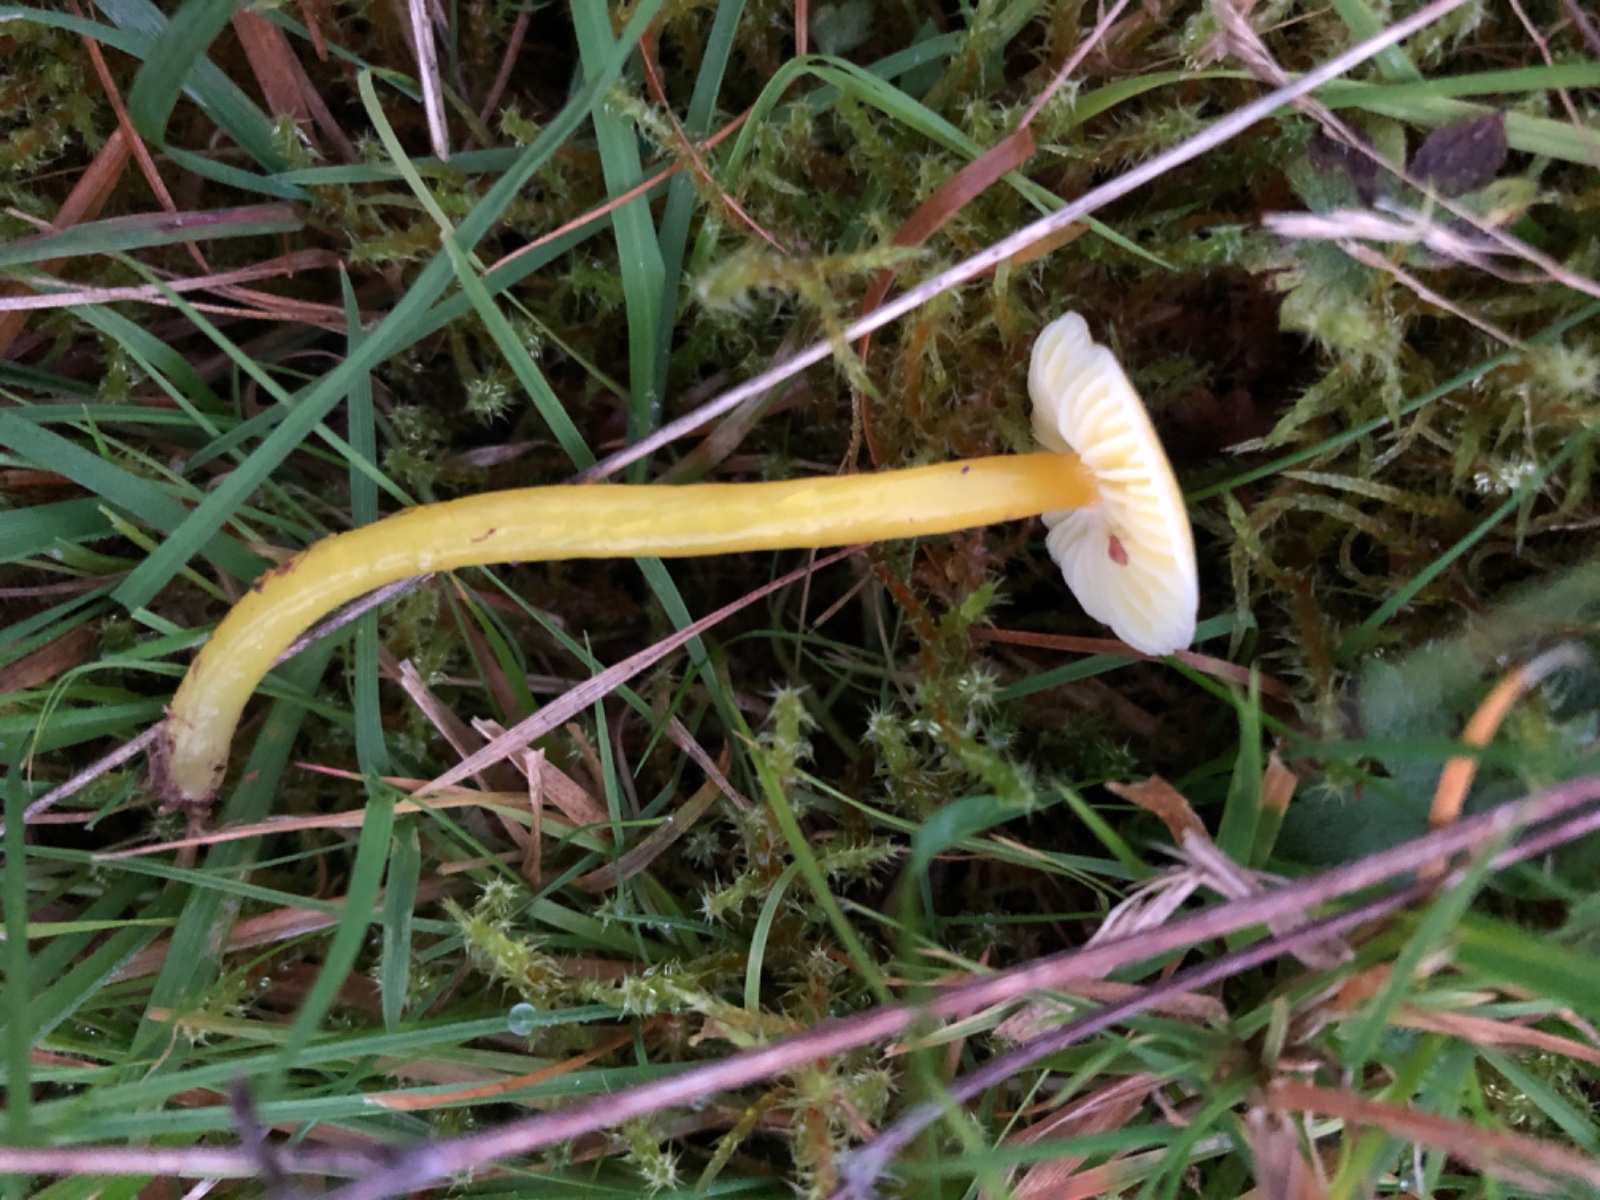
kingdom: Fungi
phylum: Basidiomycota
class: Agaricomycetes
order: Agaricales
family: Hygrophoraceae
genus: Hygrocybe
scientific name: Hygrocybe glutinipes
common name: slimstokket vokshat
